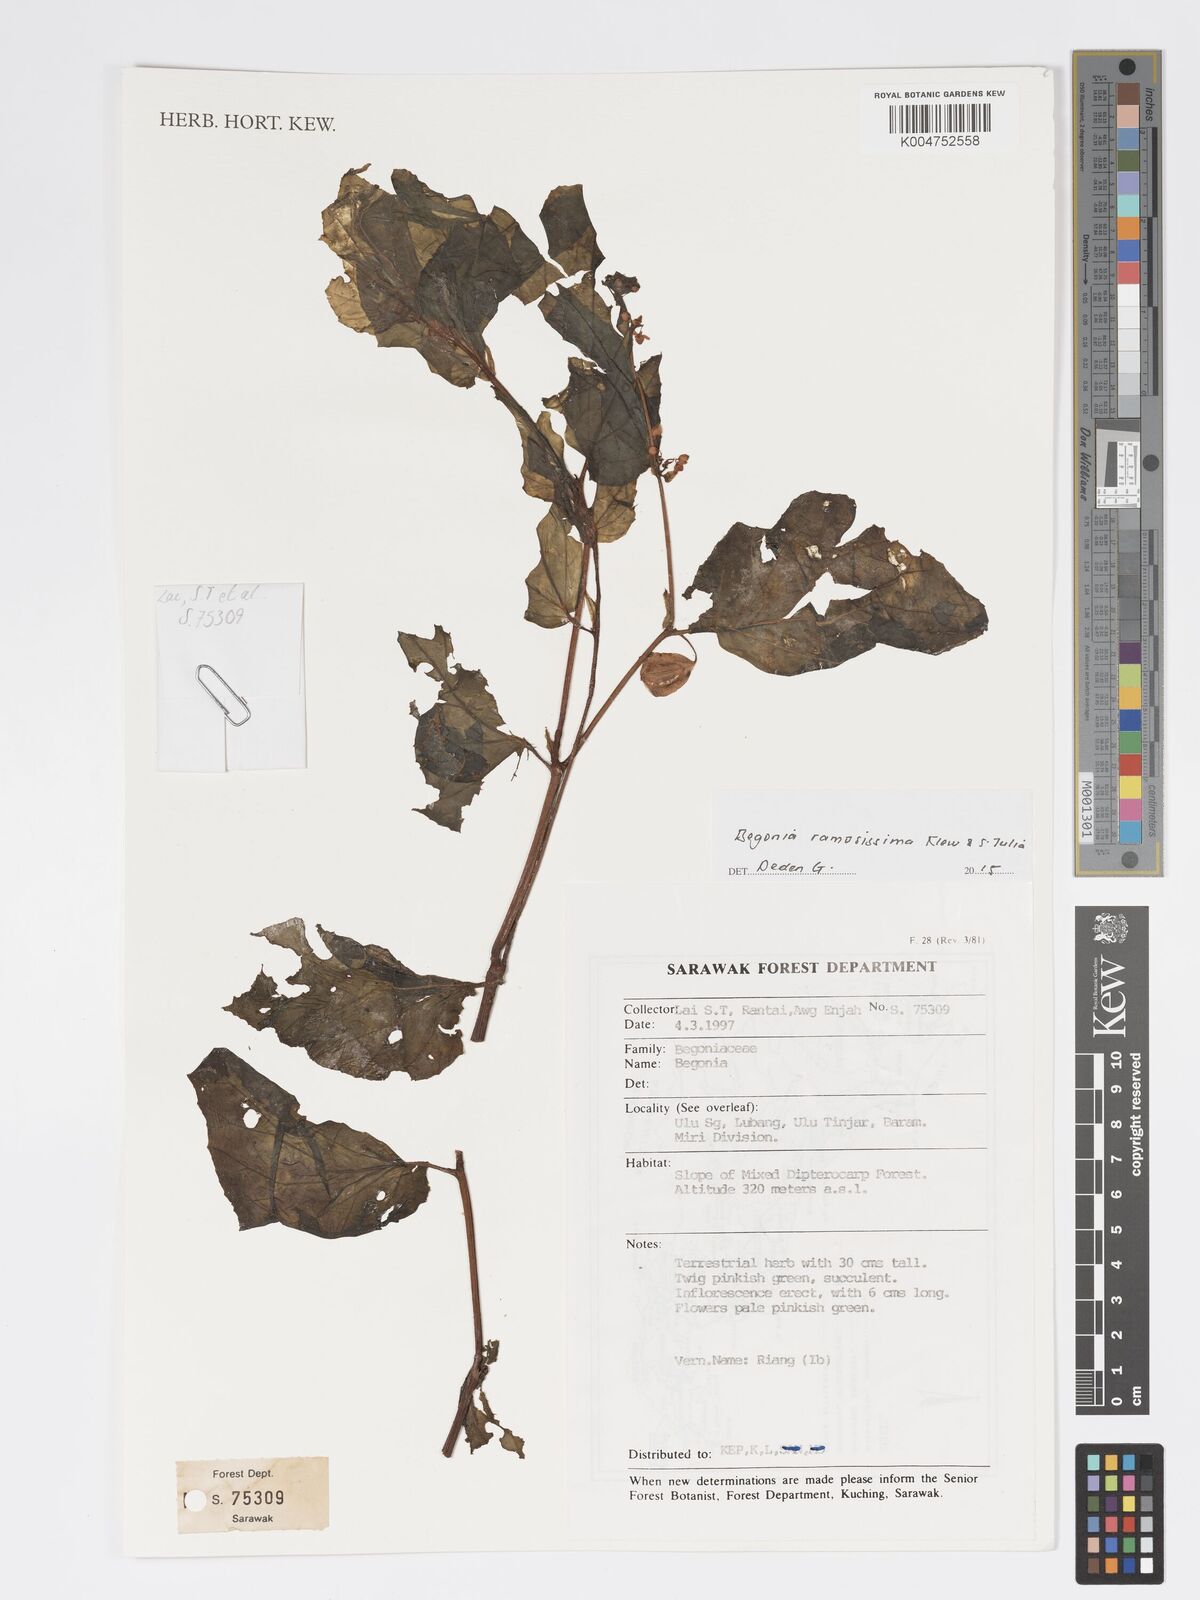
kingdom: Plantae
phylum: Tracheophyta
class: Magnoliopsida
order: Cucurbitales
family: Begoniaceae
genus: Begonia
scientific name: Begonia ramosissima
